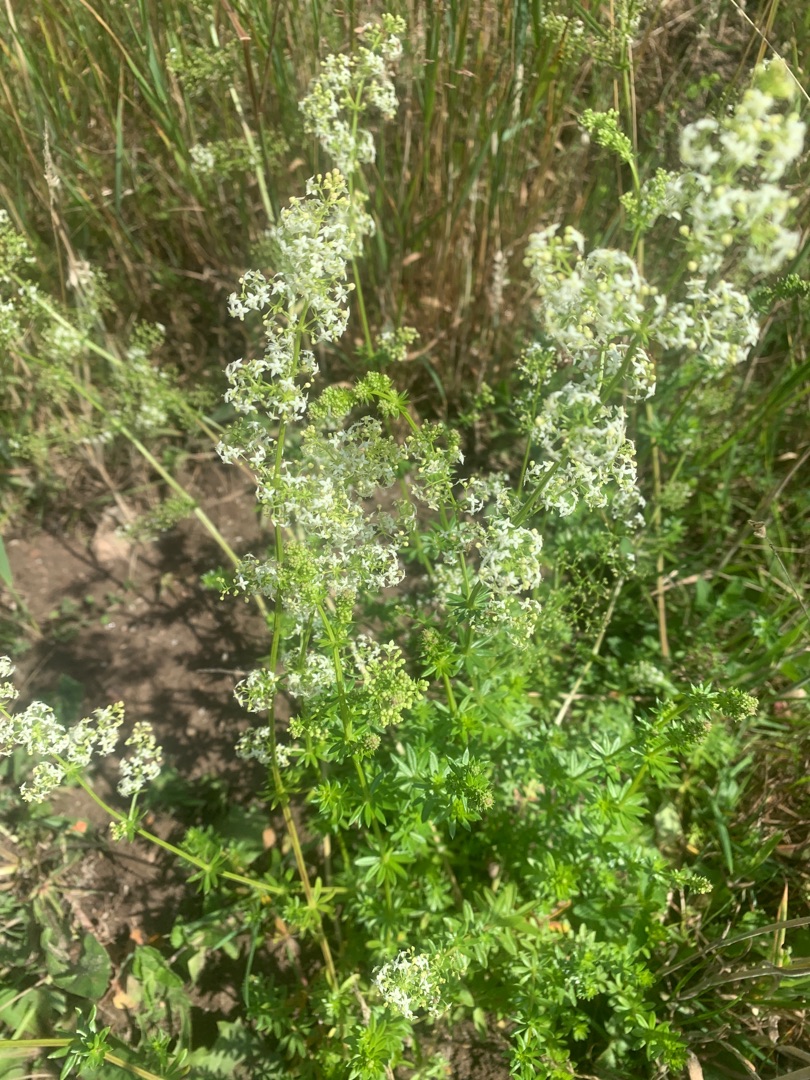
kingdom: Plantae
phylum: Tracheophyta
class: Magnoliopsida
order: Gentianales
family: Rubiaceae
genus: Galium
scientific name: Galium mollugo
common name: Hvid snerre
